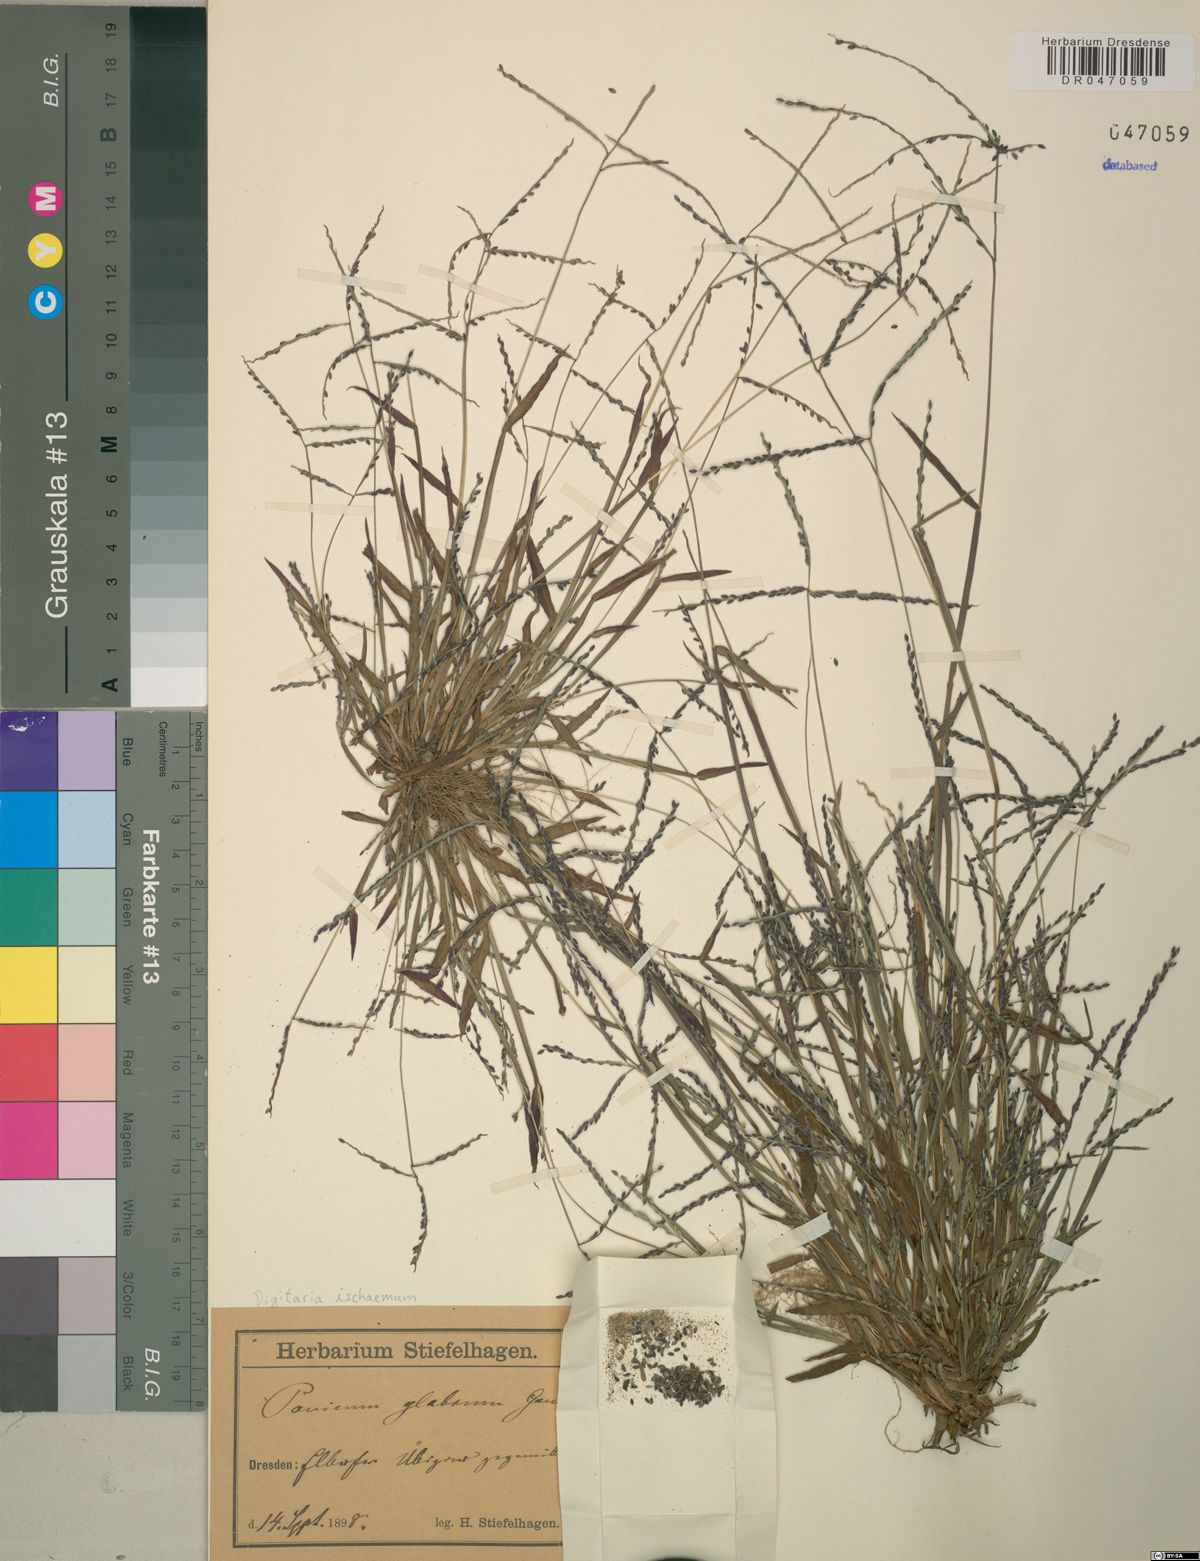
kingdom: Plantae
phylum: Tracheophyta
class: Liliopsida
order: Poales
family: Poaceae
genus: Digitaria
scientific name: Digitaria ischaemum
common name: Smooth crabgrass
